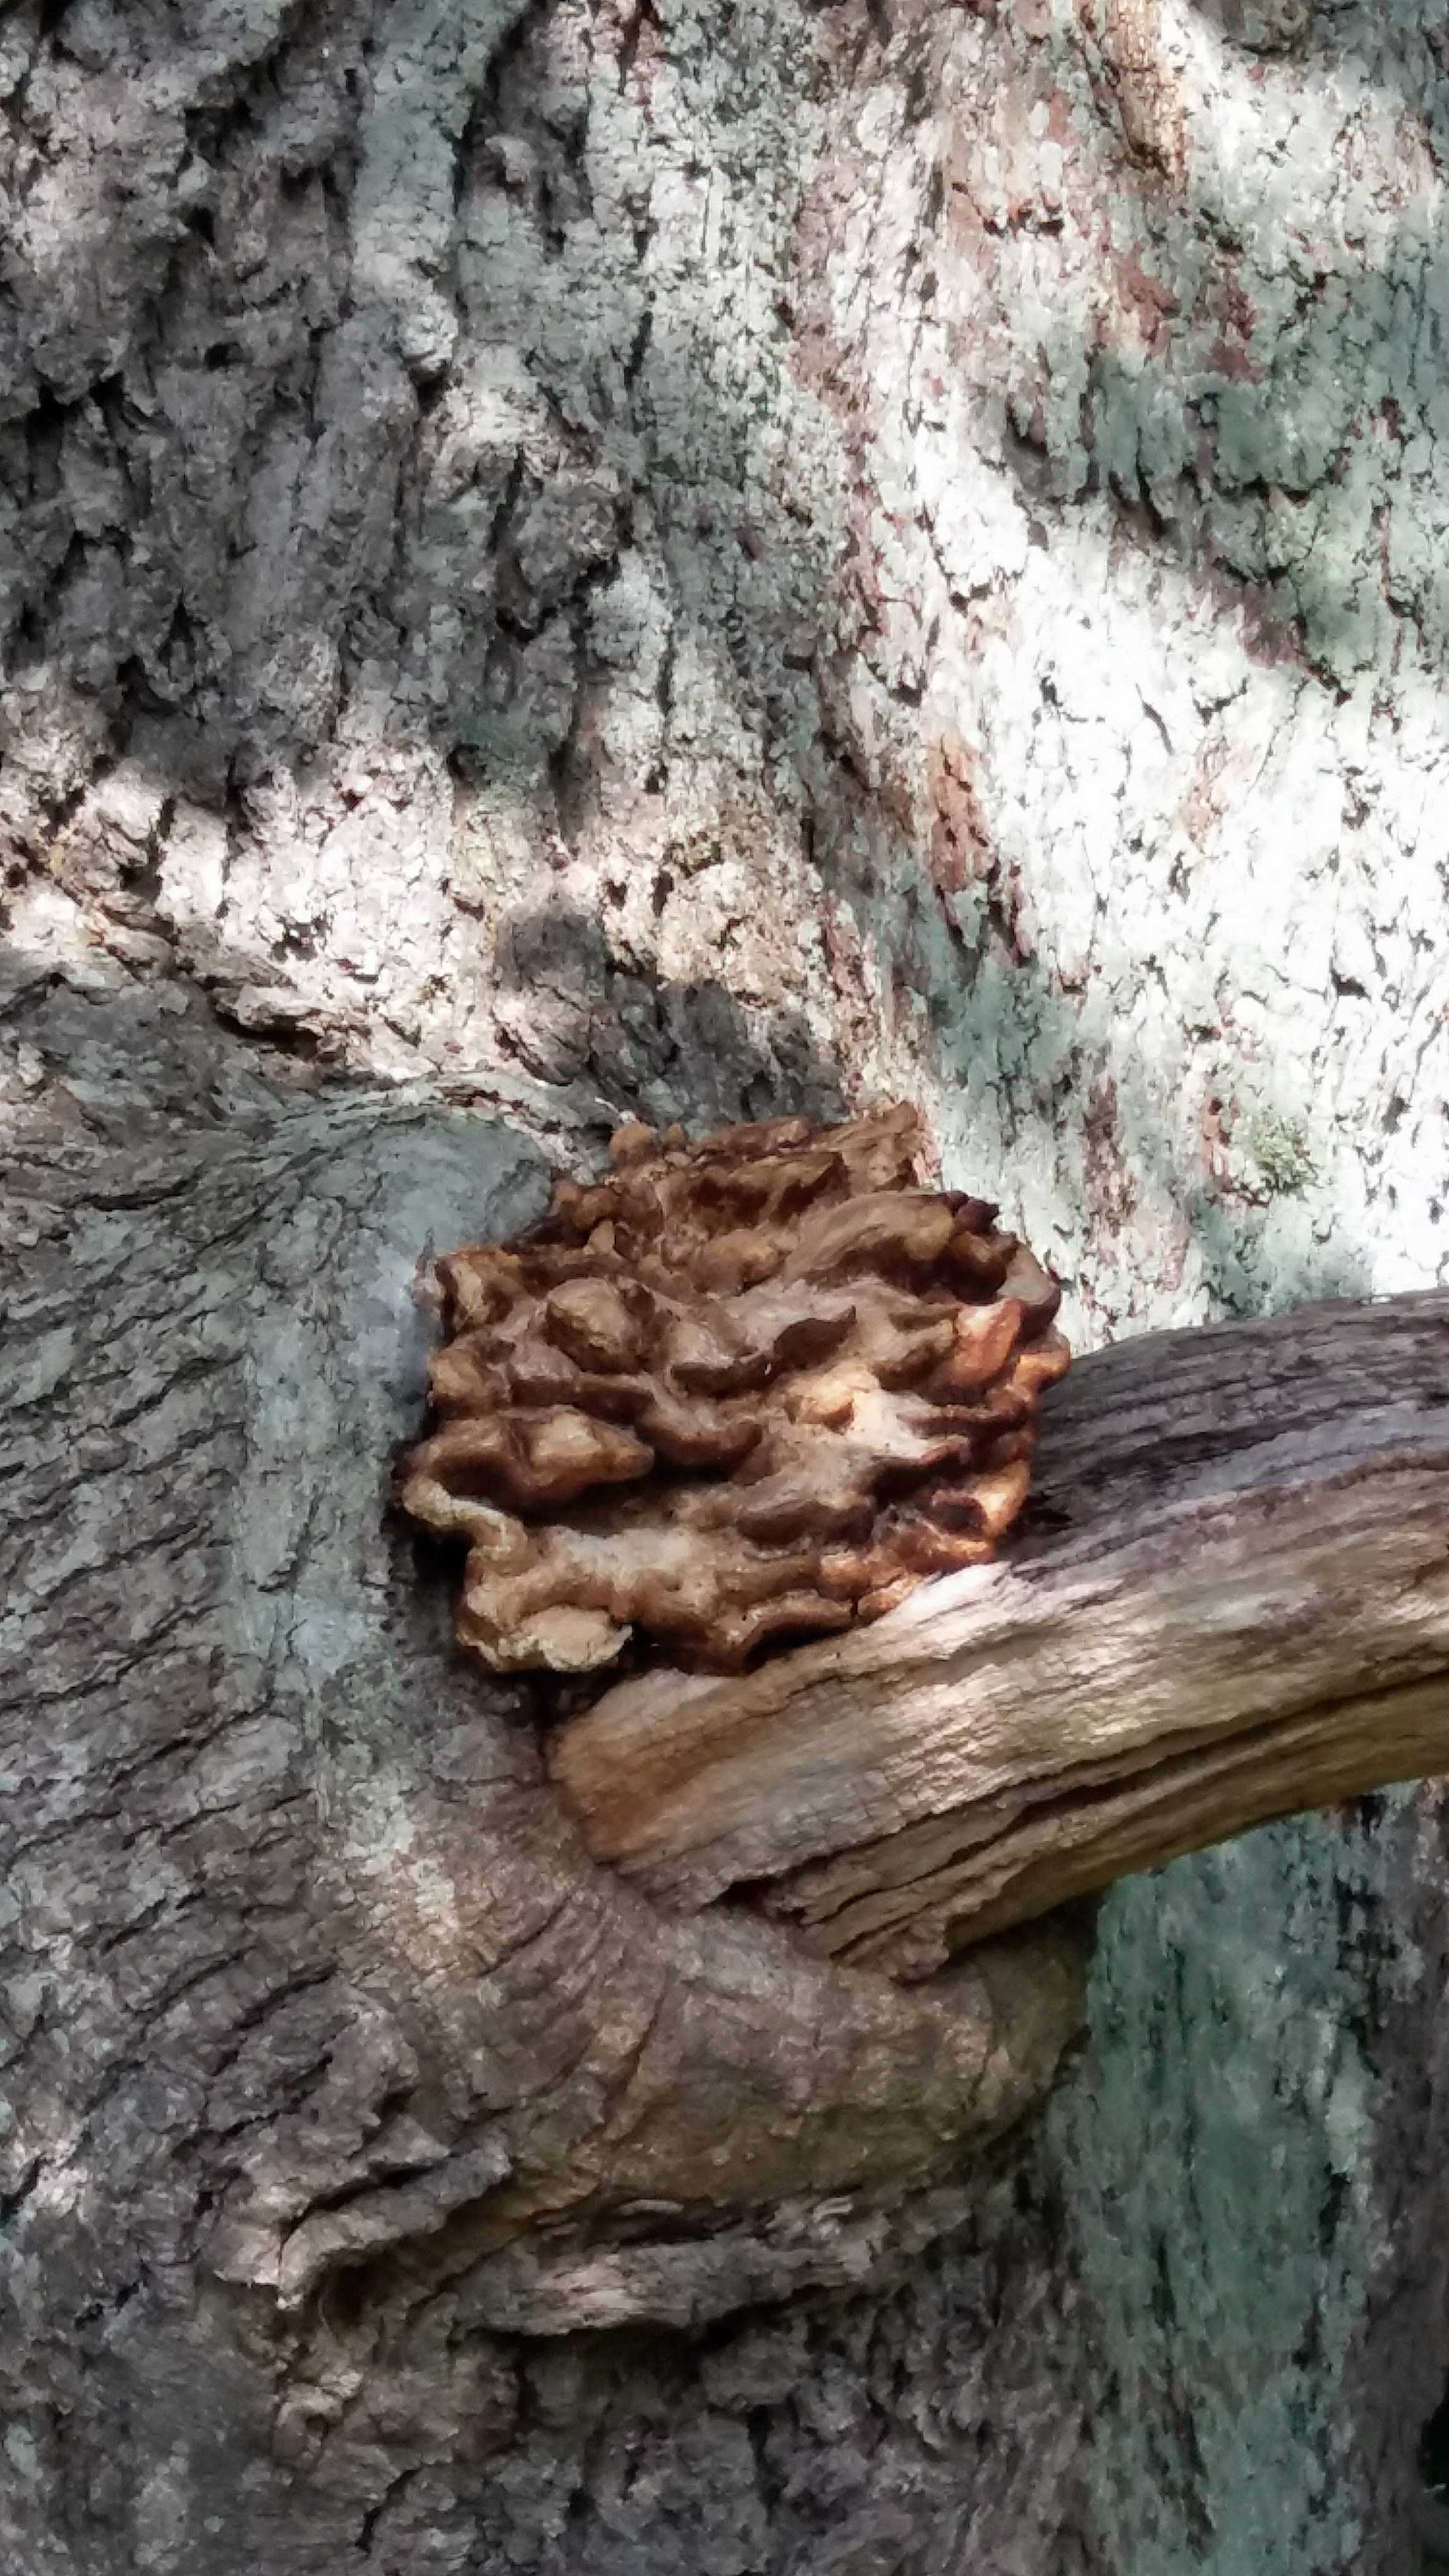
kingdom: Fungi
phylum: Basidiomycota
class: Agaricomycetes
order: Polyporales
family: Laetiporaceae
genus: Laetiporus
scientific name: Laetiporus sulphureus
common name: svovlporesvamp
